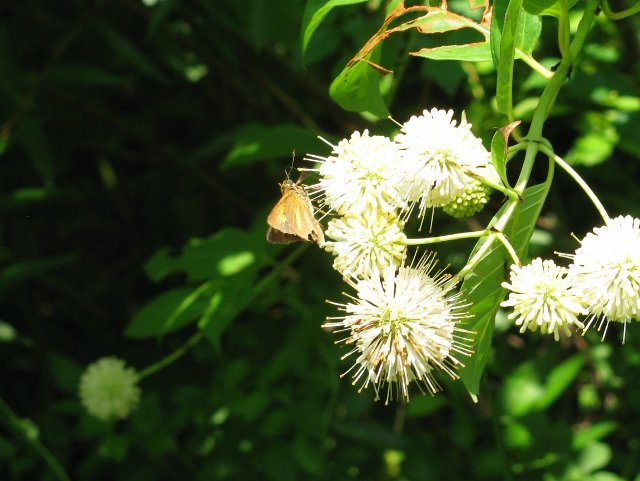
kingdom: Animalia
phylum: Arthropoda
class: Insecta
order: Lepidoptera
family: Hesperiidae
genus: Euphyes
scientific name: Euphyes dion
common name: Dion Skipper
